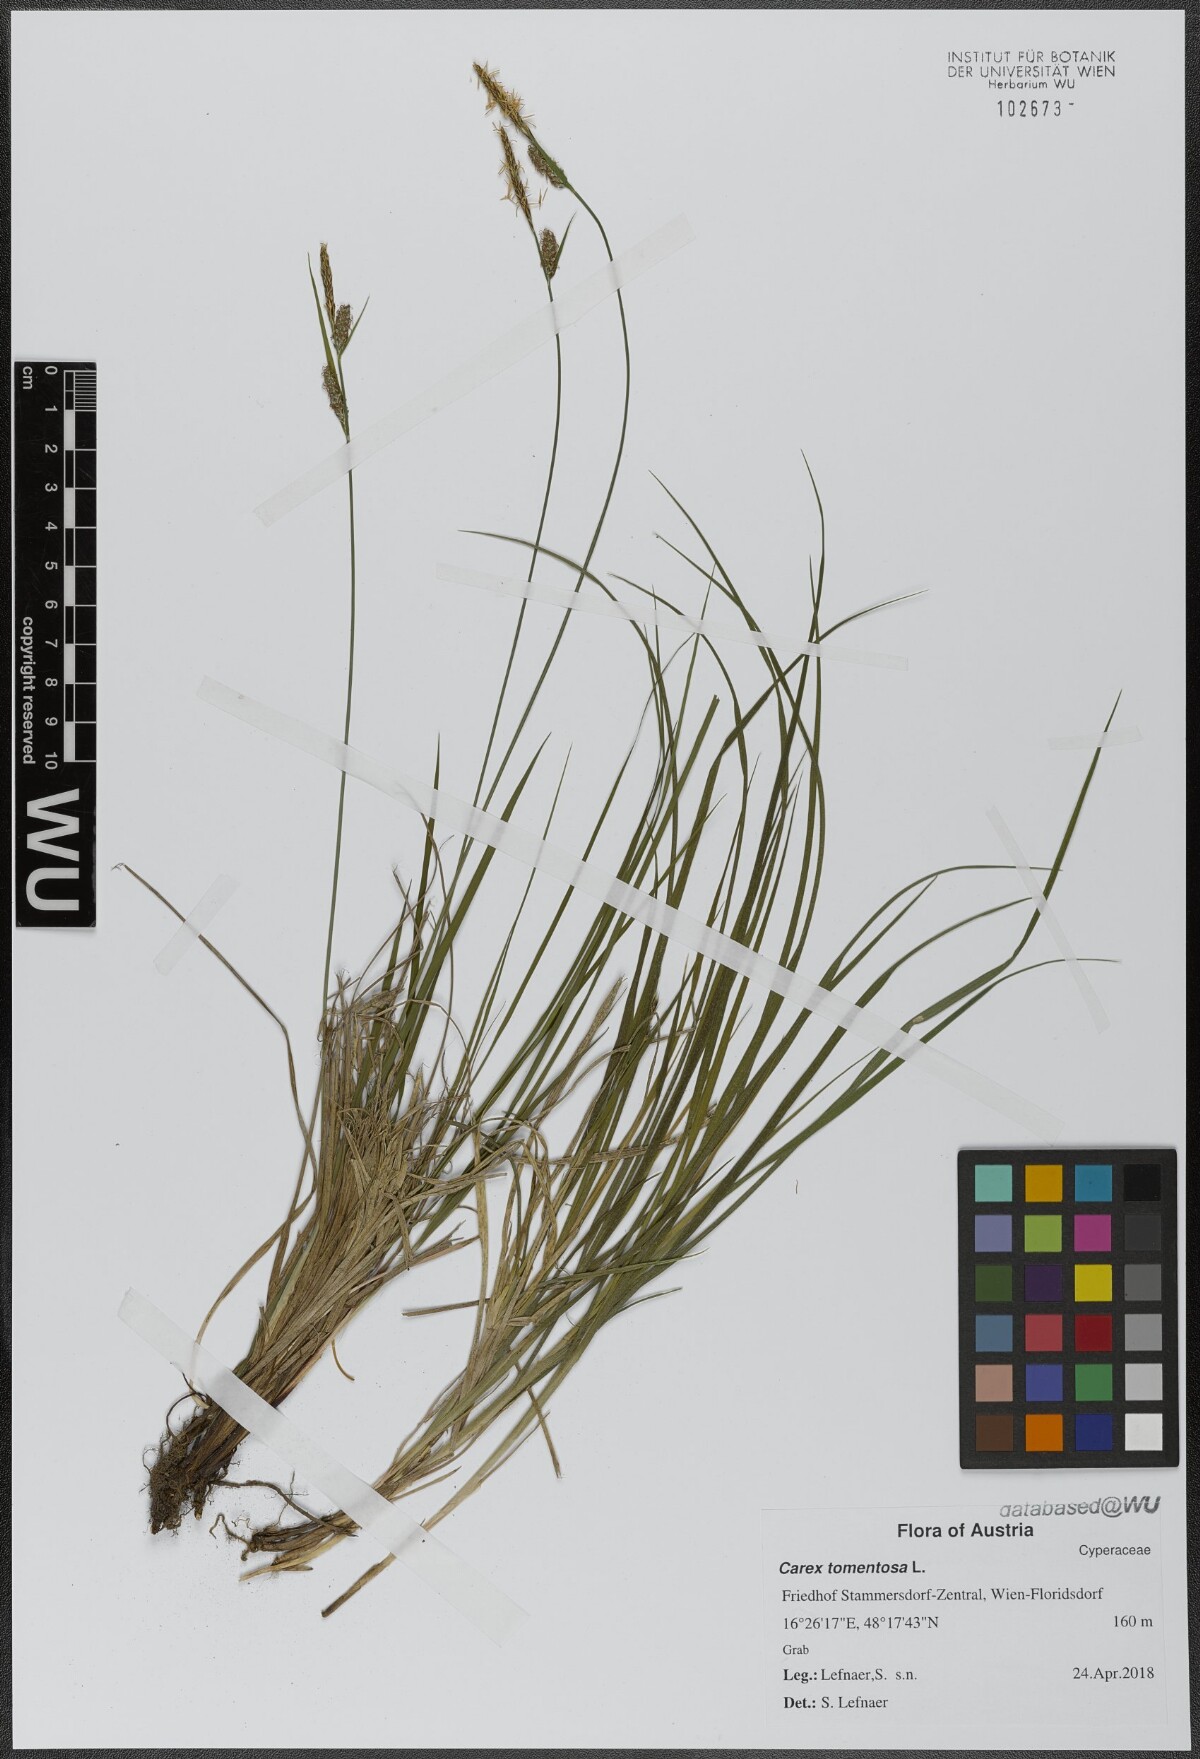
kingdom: Plantae
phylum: Tracheophyta
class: Liliopsida
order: Poales
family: Cyperaceae
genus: Carex
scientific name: Carex tomentosa
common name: Downy-fruited sedge
